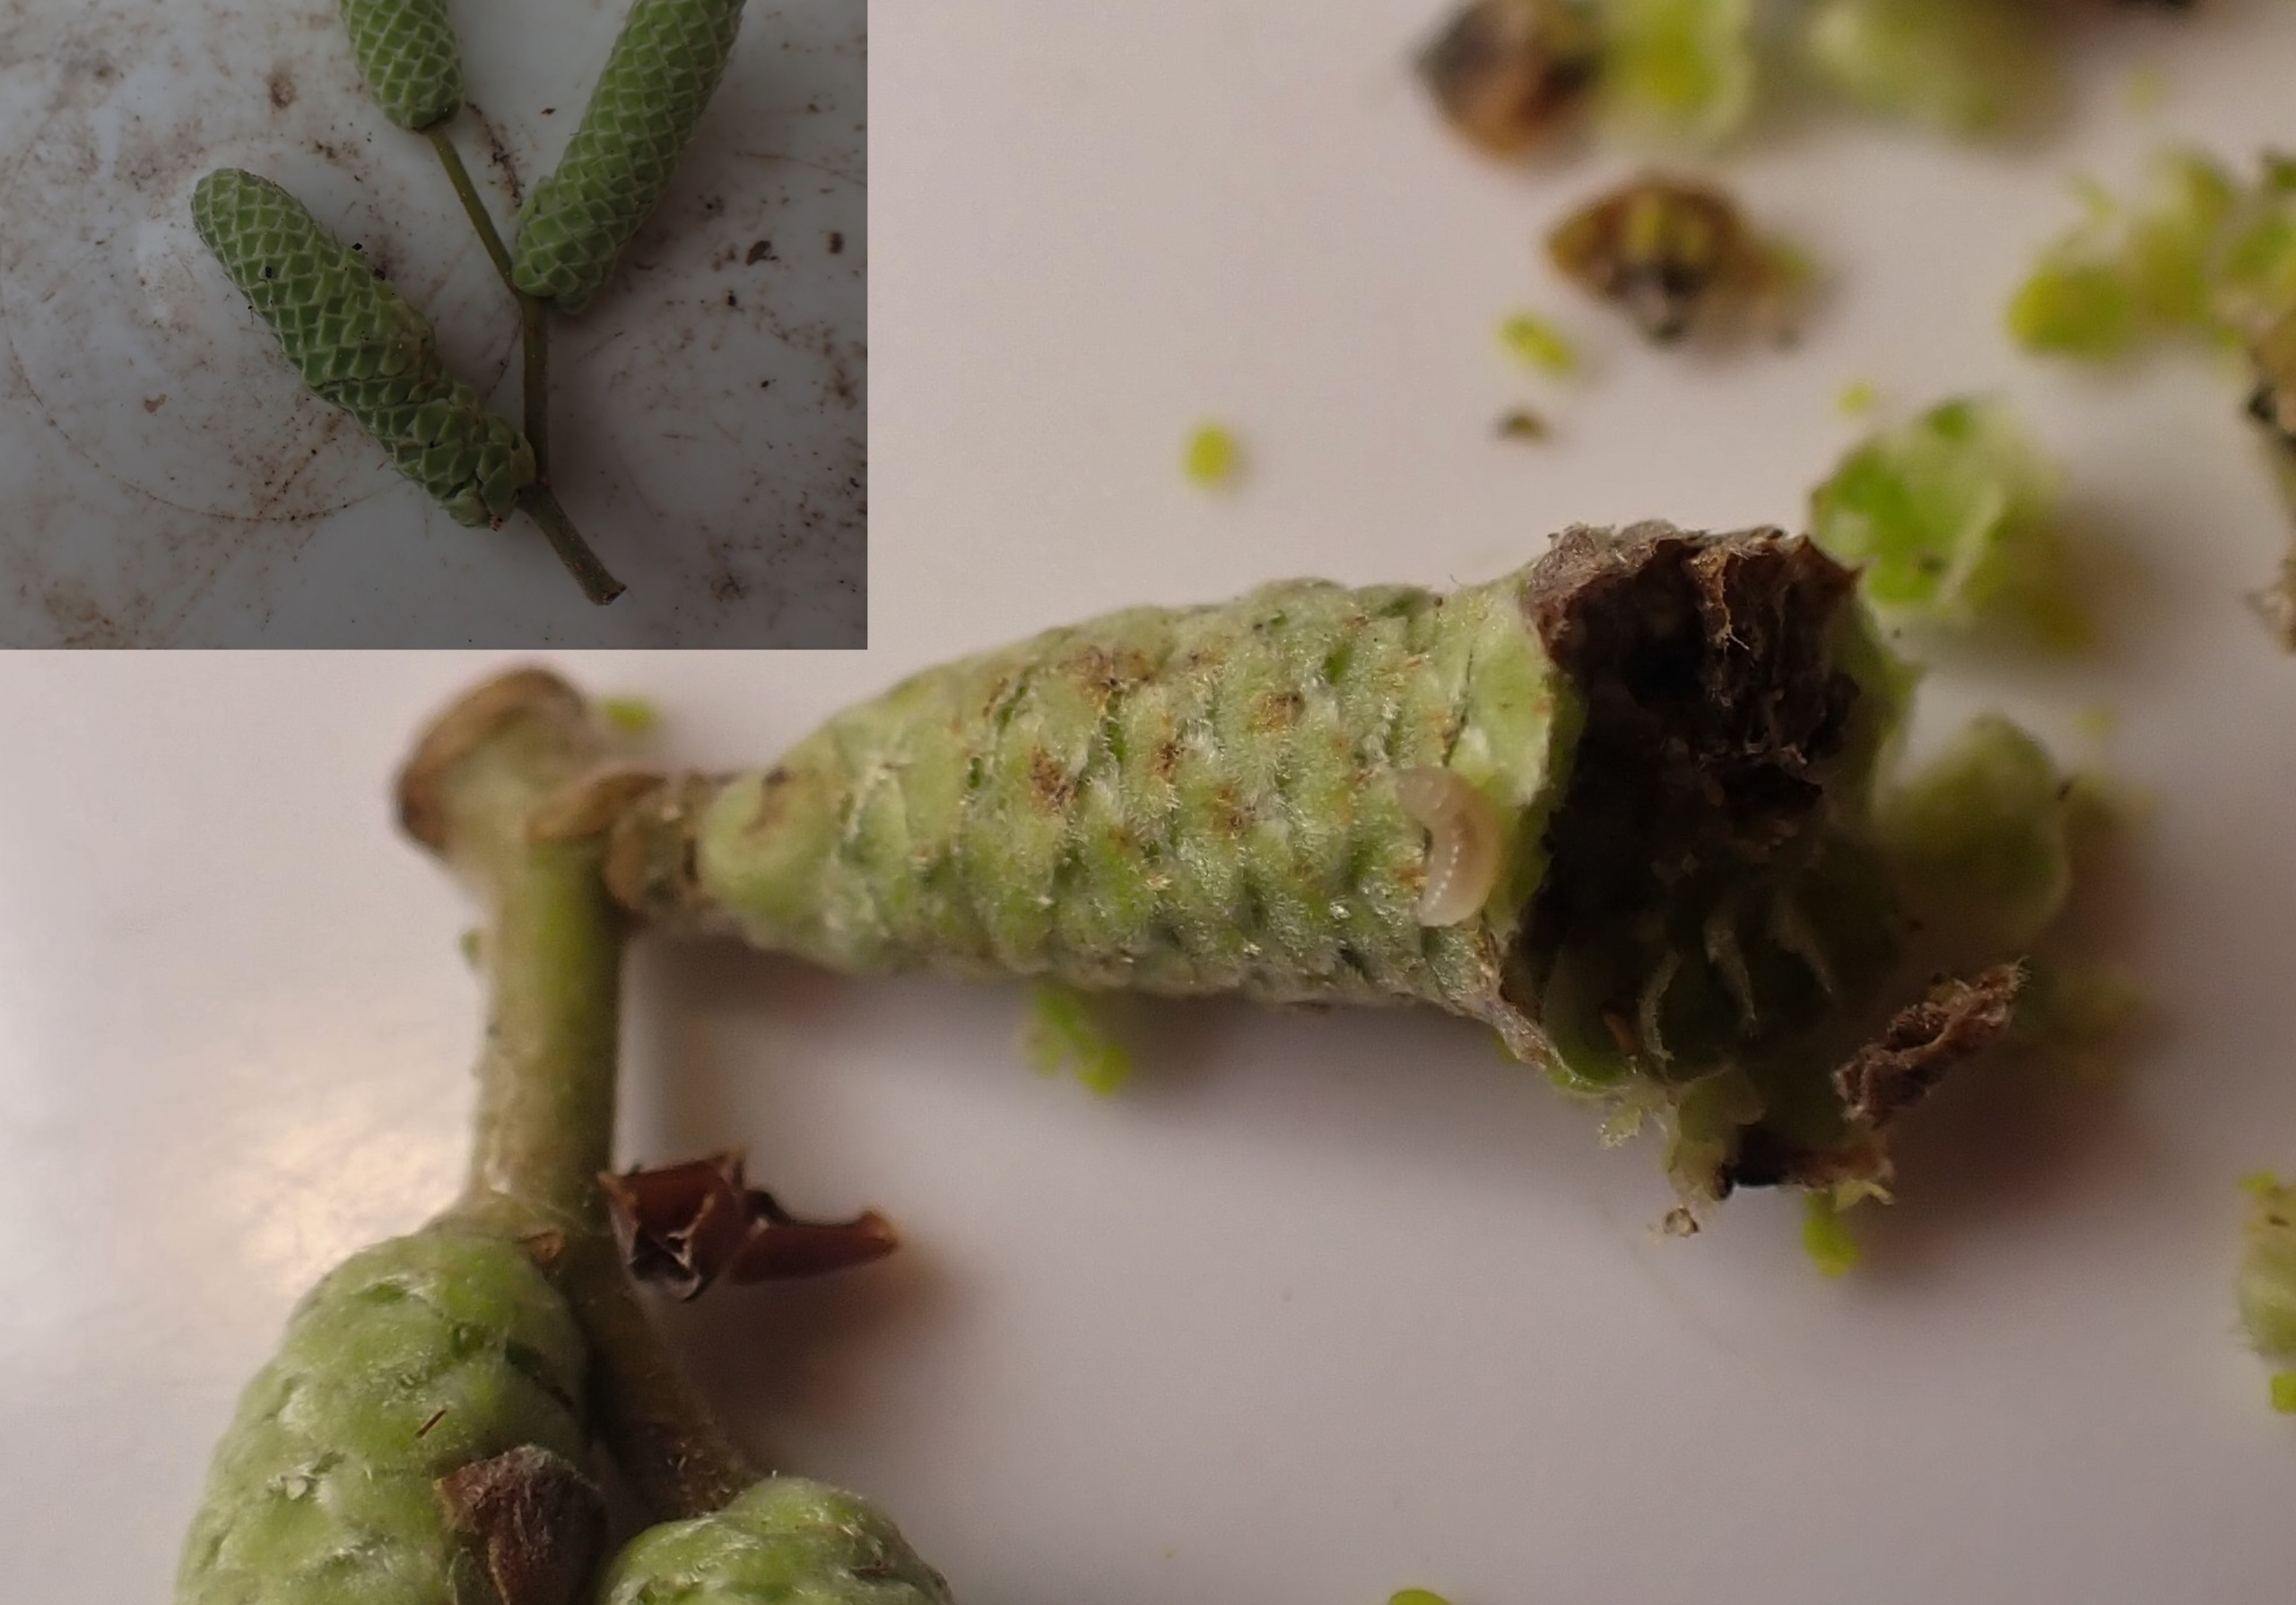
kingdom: Animalia
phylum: Arthropoda
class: Insecta
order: Diptera
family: Cecidomyiidae
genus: Contarinia
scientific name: Contarinia coryli
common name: Hasselraklegalmyg
